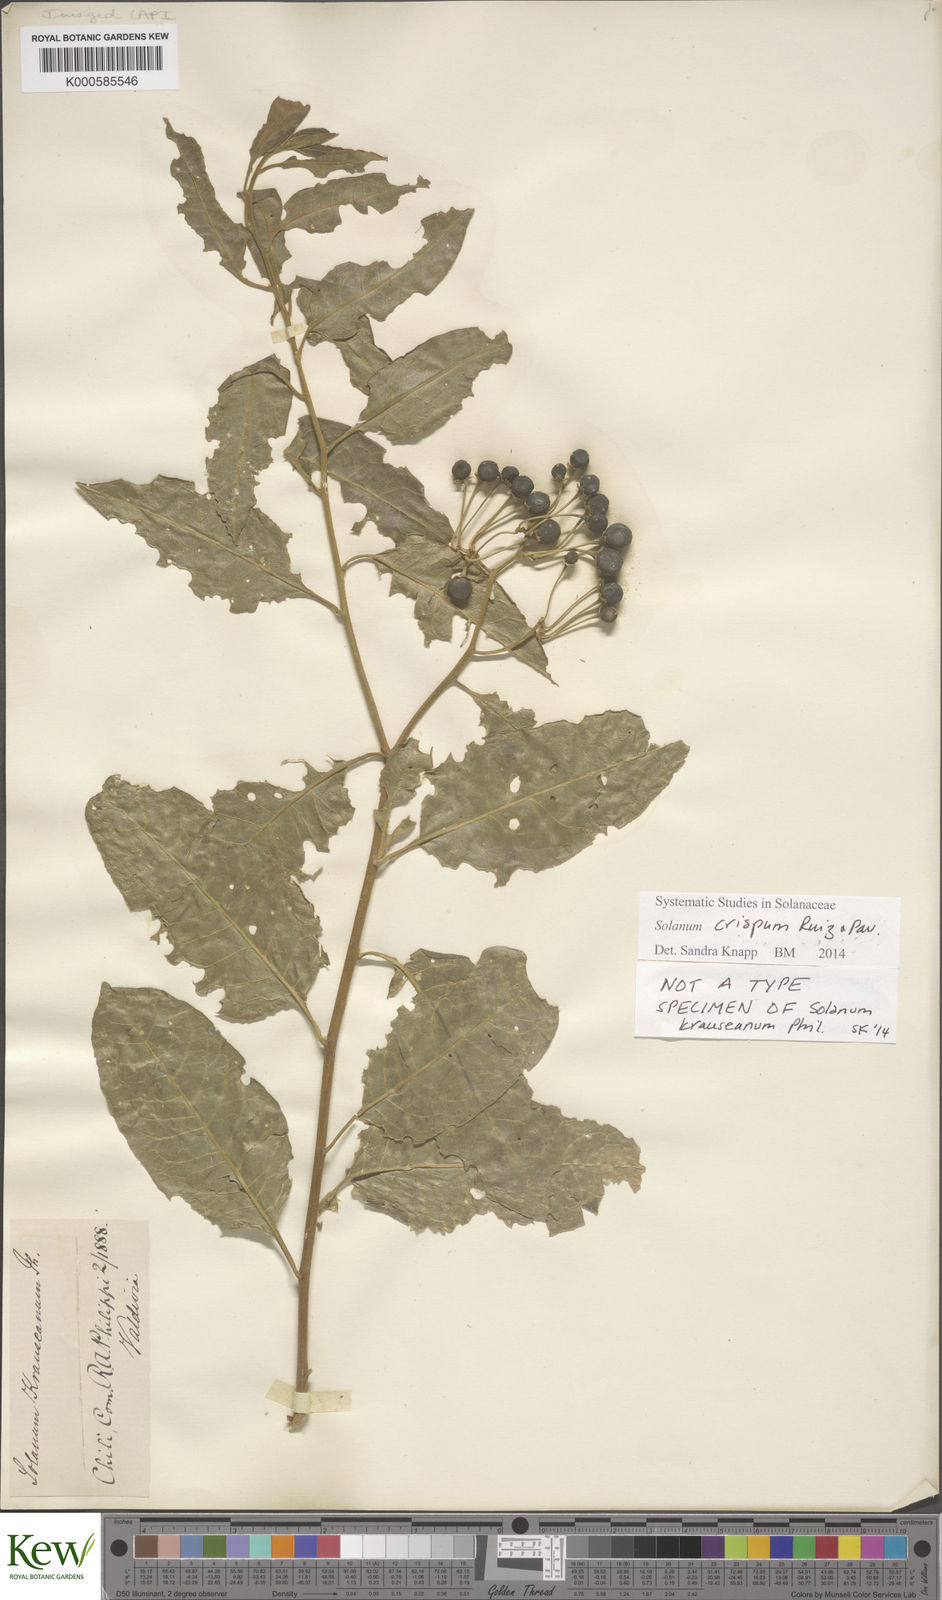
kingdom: Plantae
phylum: Tracheophyta
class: Magnoliopsida
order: Solanales
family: Solanaceae
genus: Solanum
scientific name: Solanum crispum
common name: Chilean nightshade
